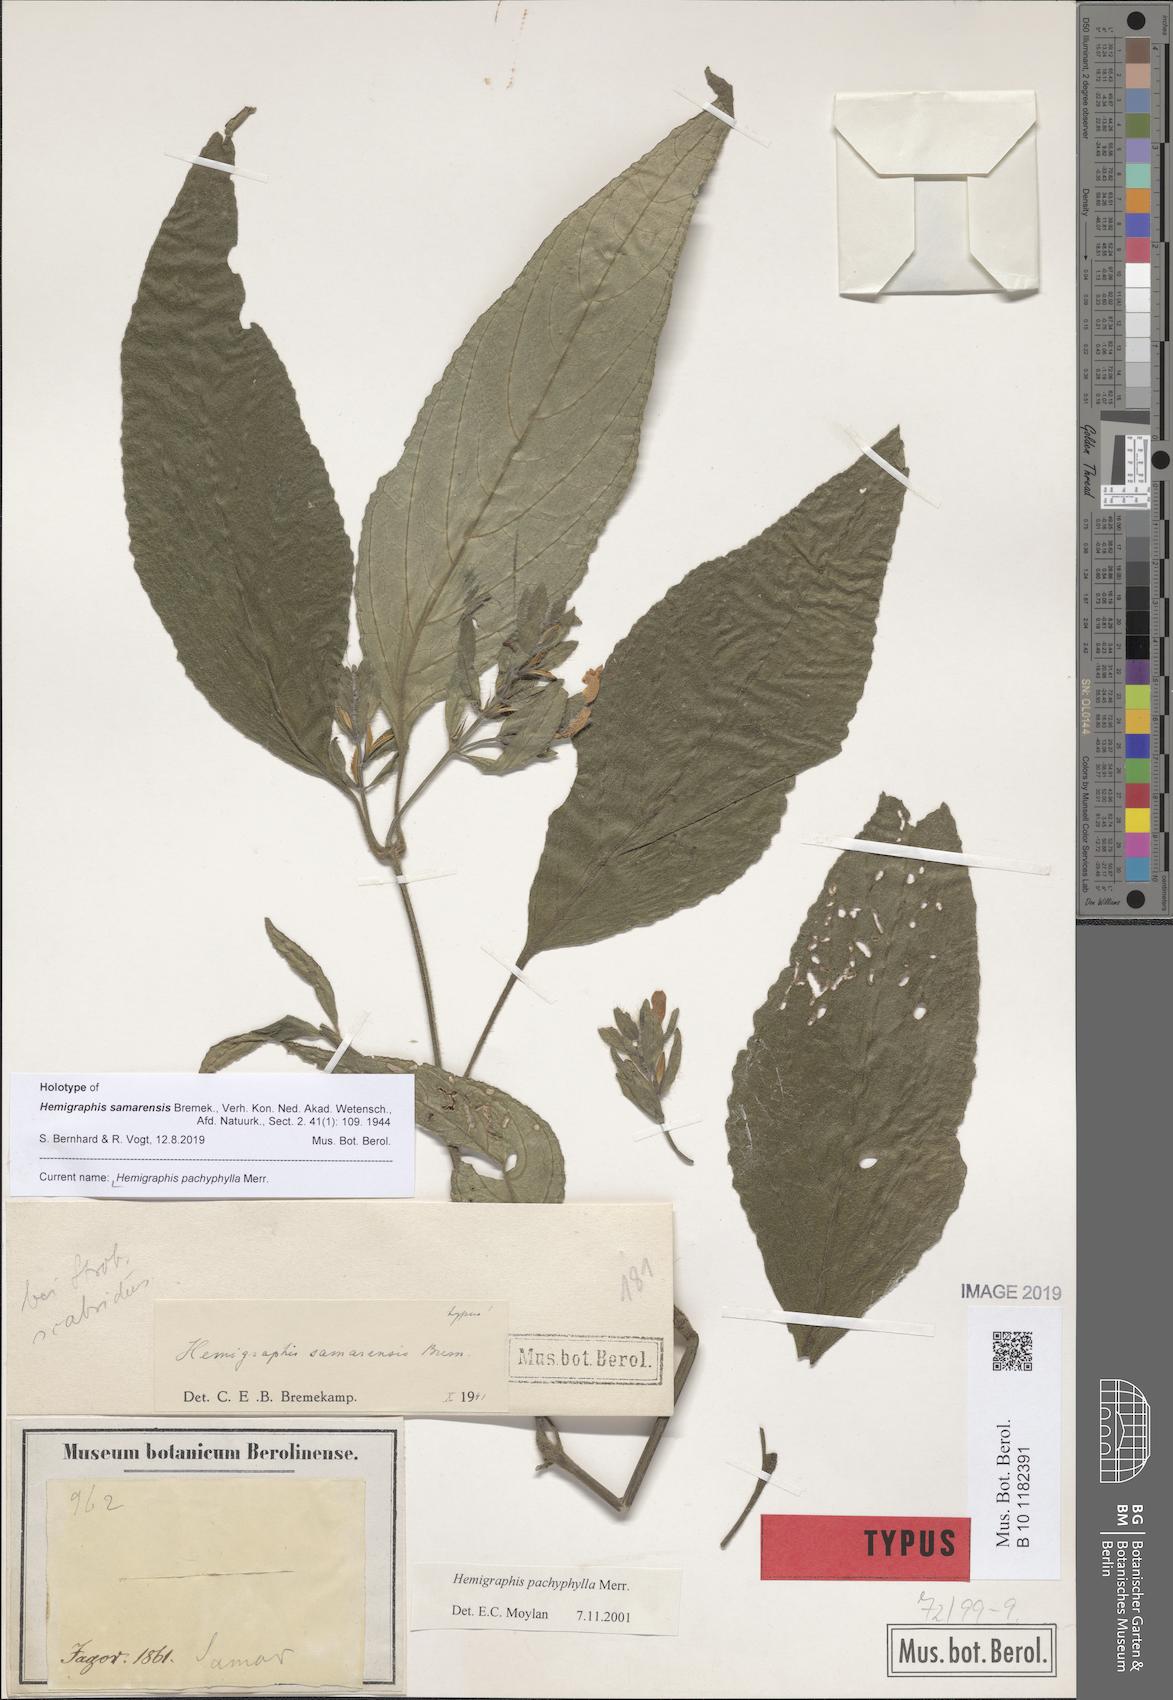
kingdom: Plantae
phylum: Tracheophyta
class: Magnoliopsida
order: Lamiales
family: Acanthaceae
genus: Strobilanthes
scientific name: Strobilanthes bulusanensis
